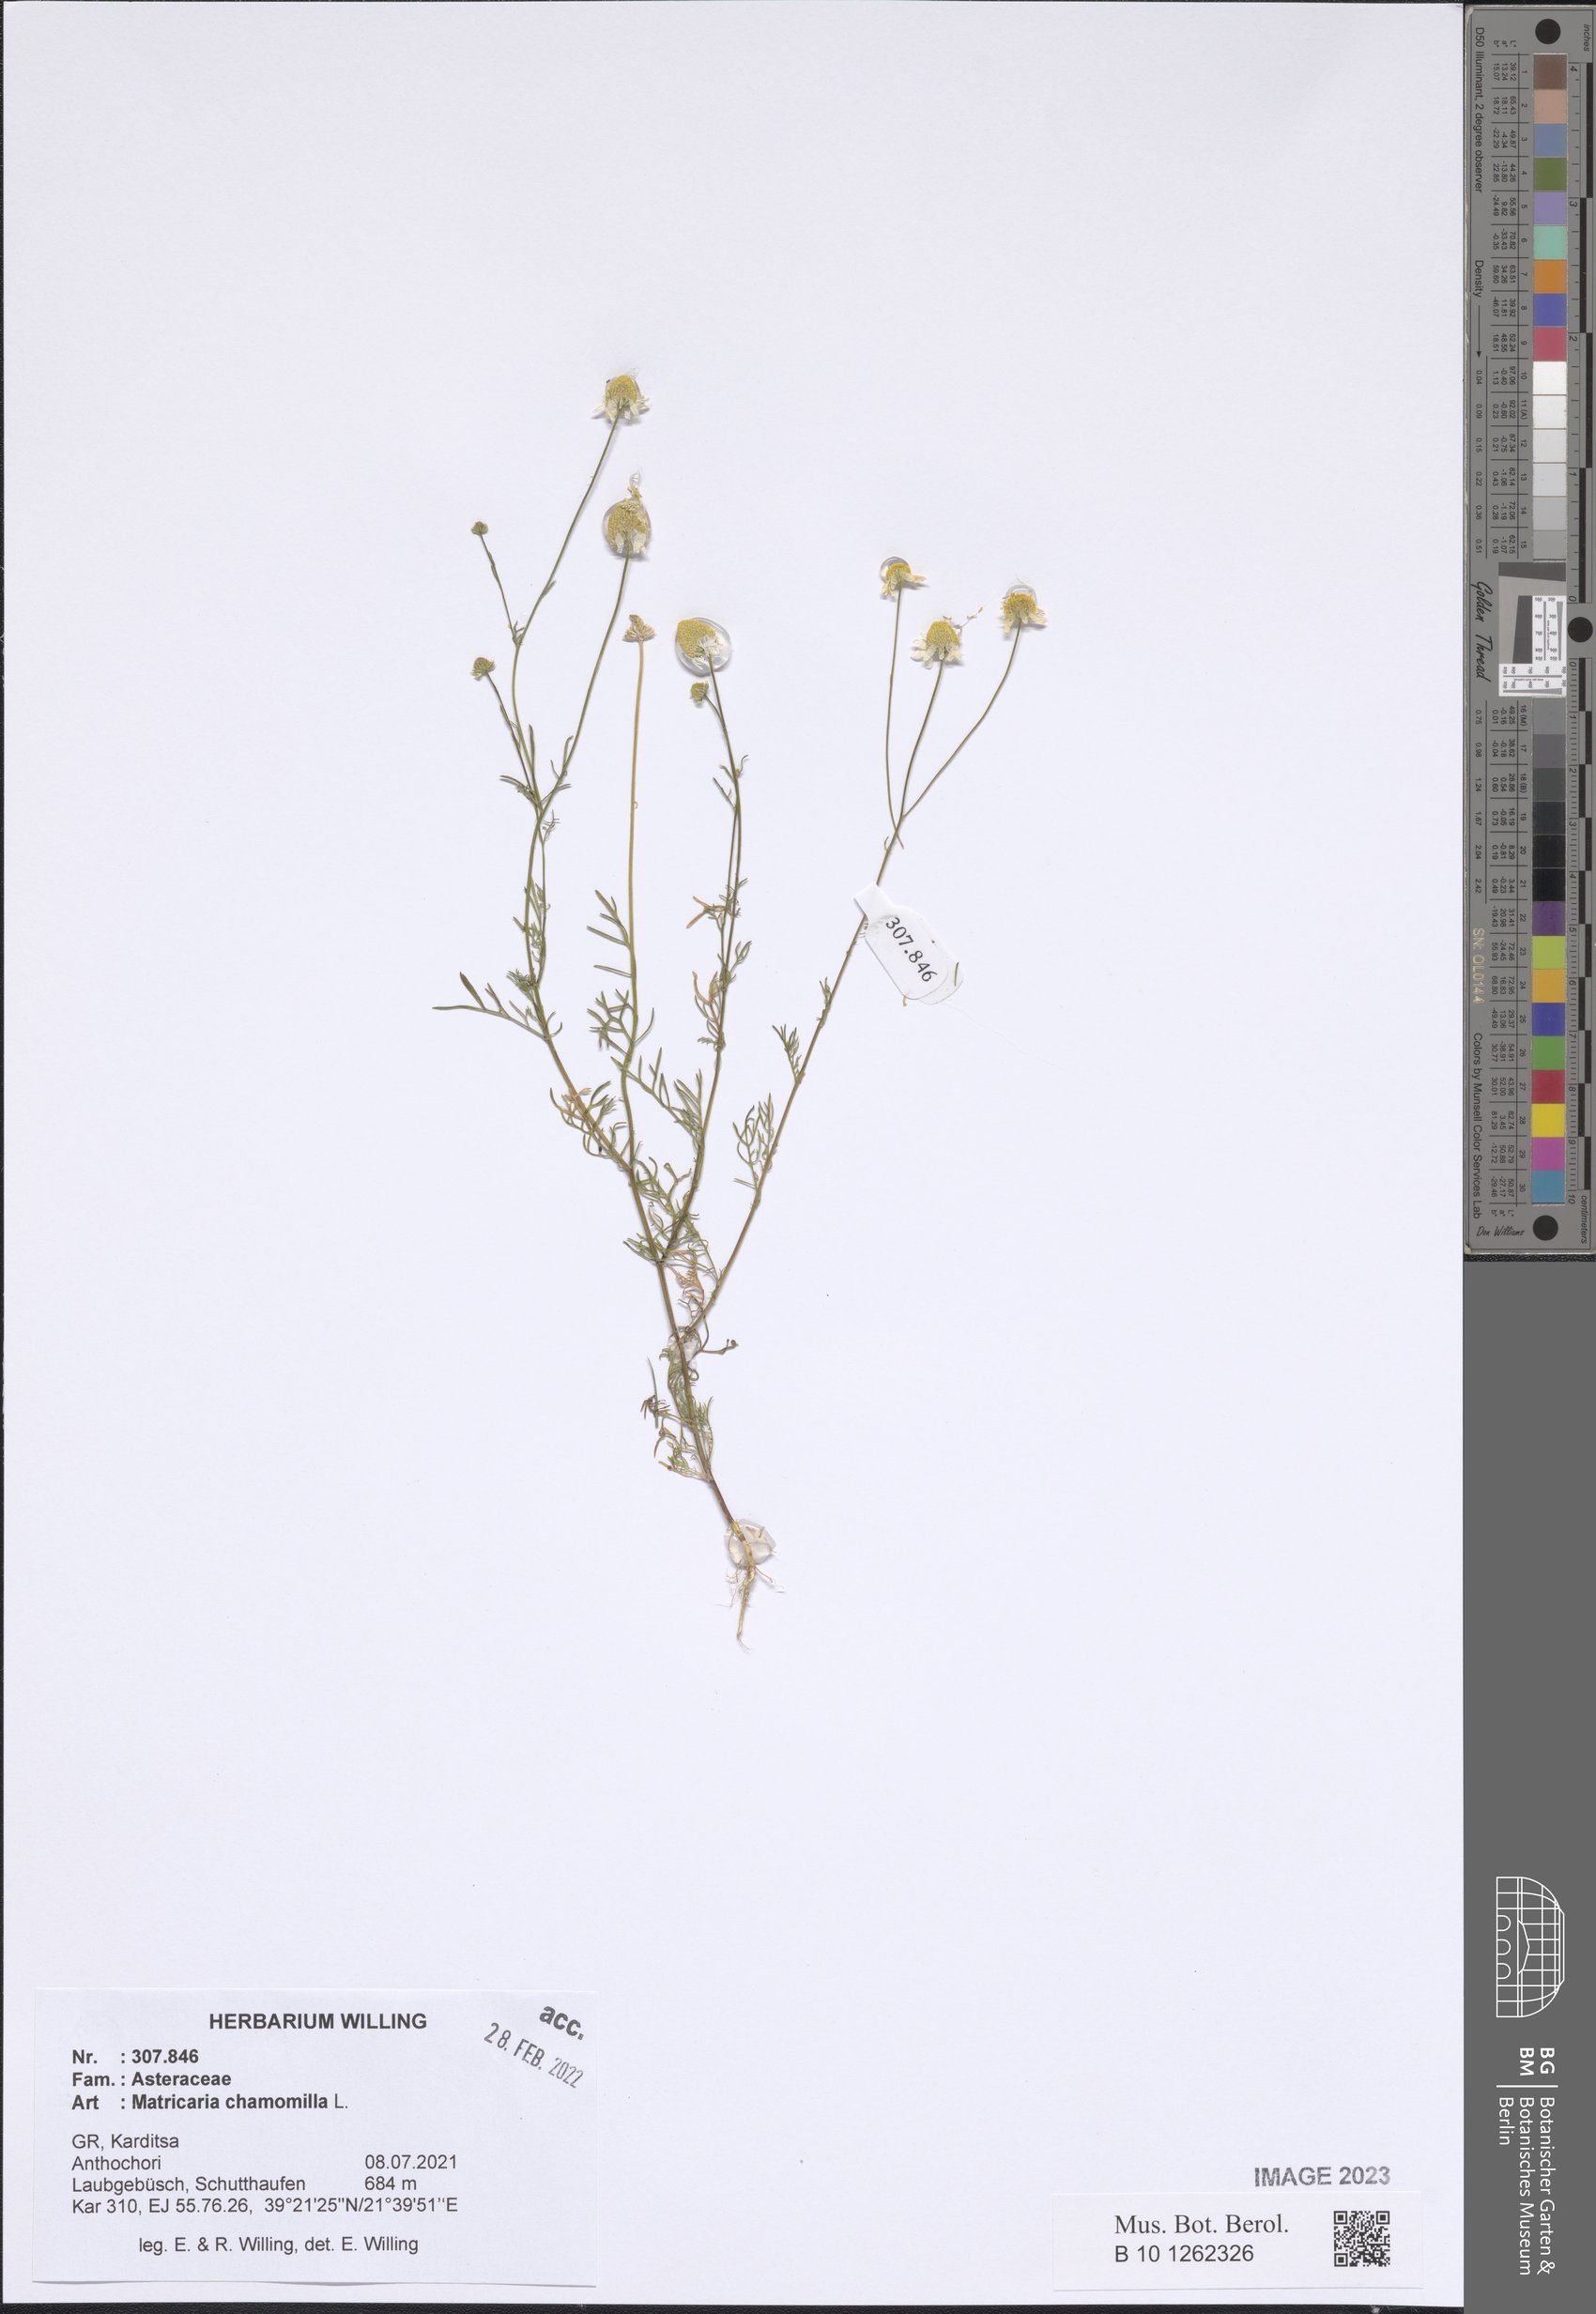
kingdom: Plantae
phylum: Tracheophyta
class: Magnoliopsida
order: Asterales
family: Asteraceae
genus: Matricaria
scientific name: Matricaria chamomilla
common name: Scented mayweed
